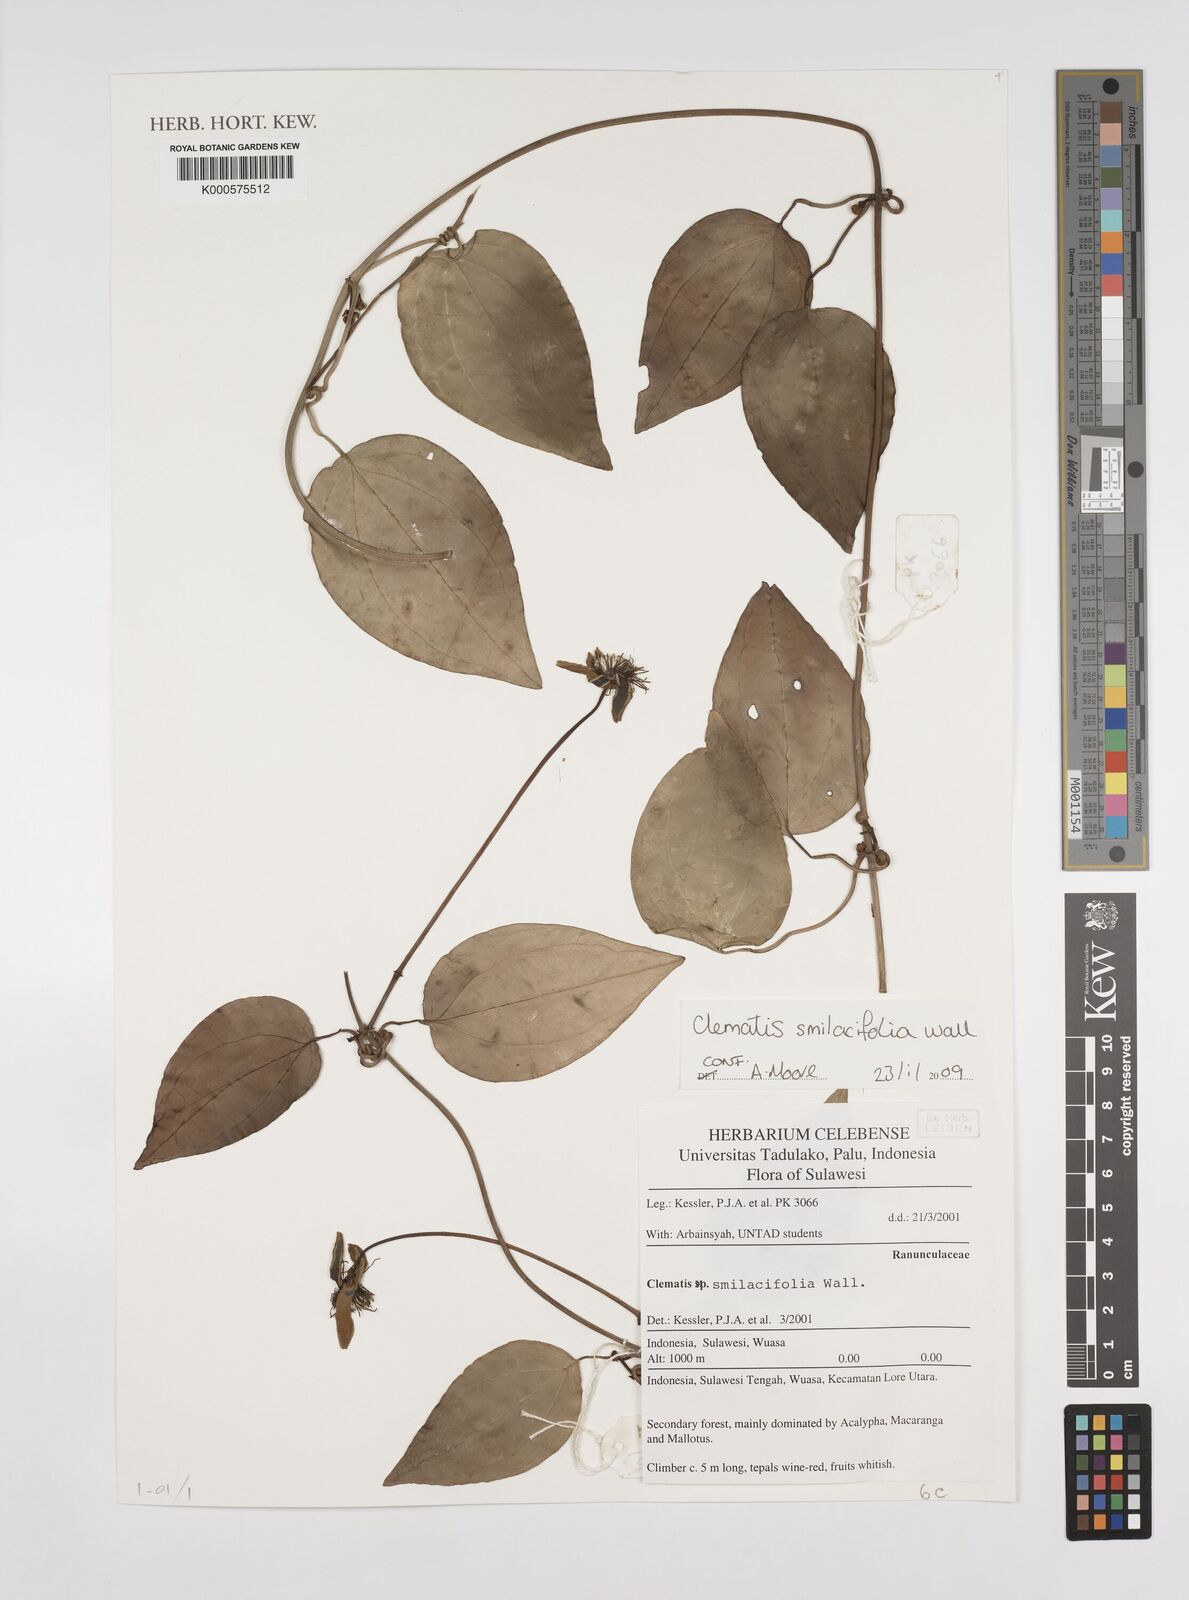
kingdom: Plantae
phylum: Tracheophyta
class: Magnoliopsida
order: Ranunculales
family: Ranunculaceae
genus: Clematis
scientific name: Clematis smilacifolia
